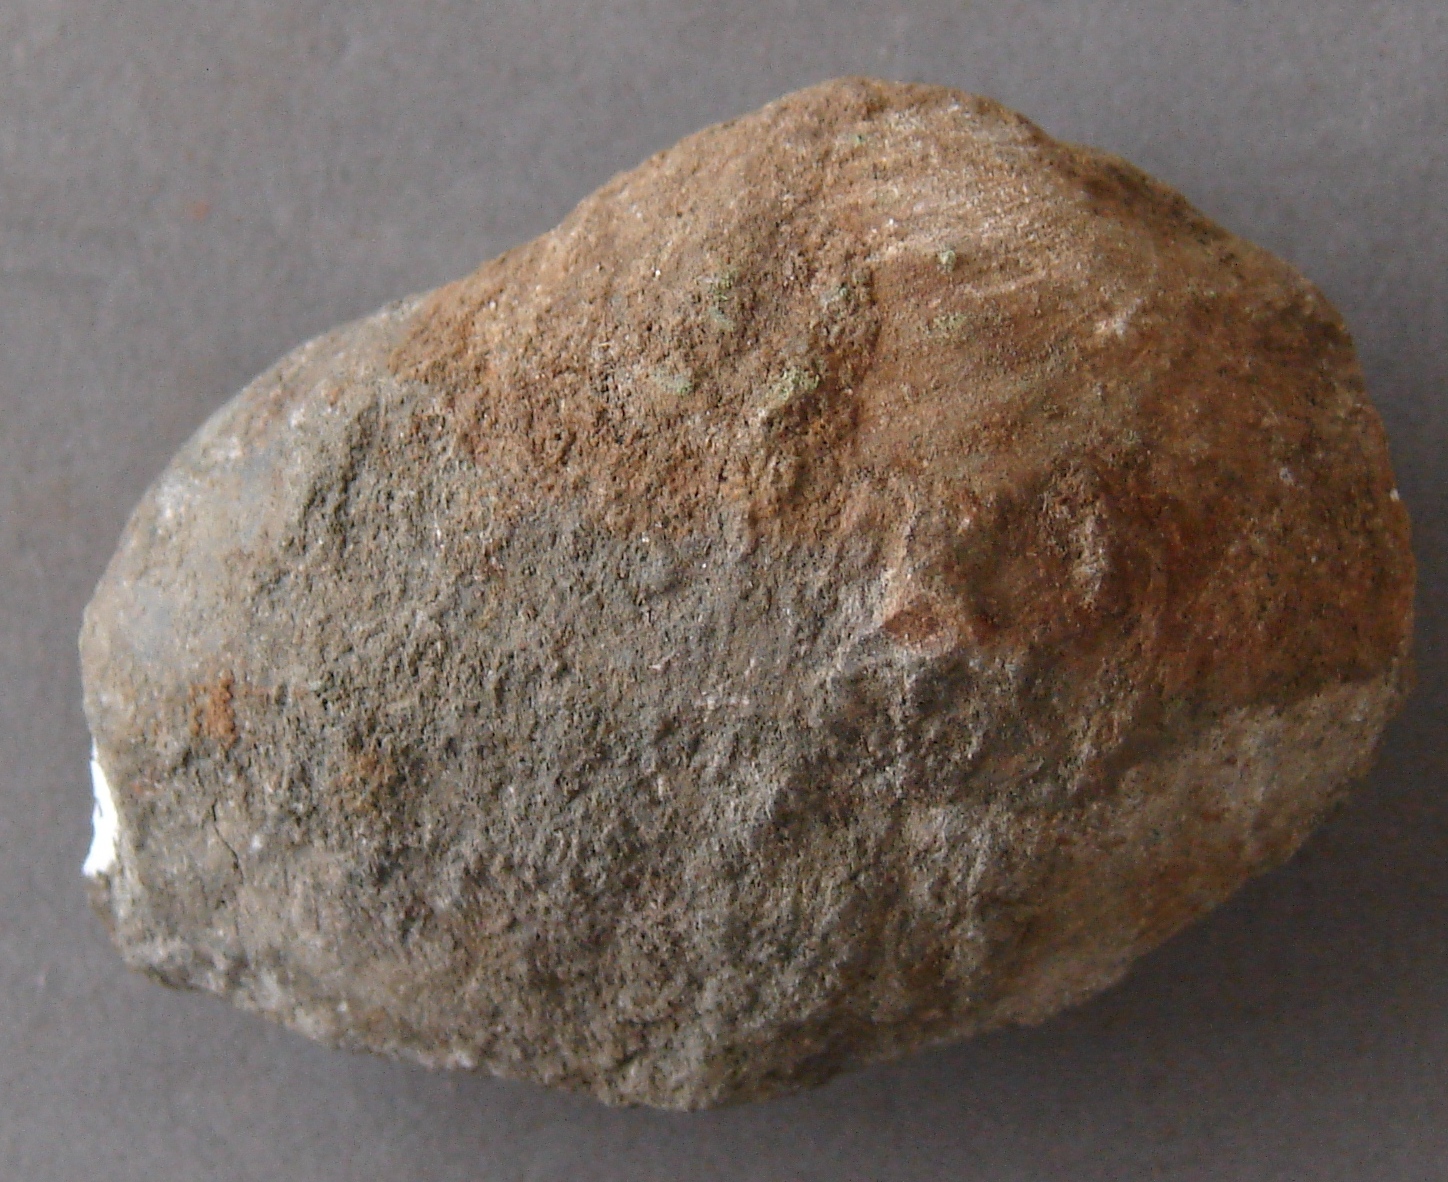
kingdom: Animalia
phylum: Mollusca
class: Bivalvia
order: Venerida
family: Mactridae
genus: Lutraria
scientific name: Lutraria gregaria
